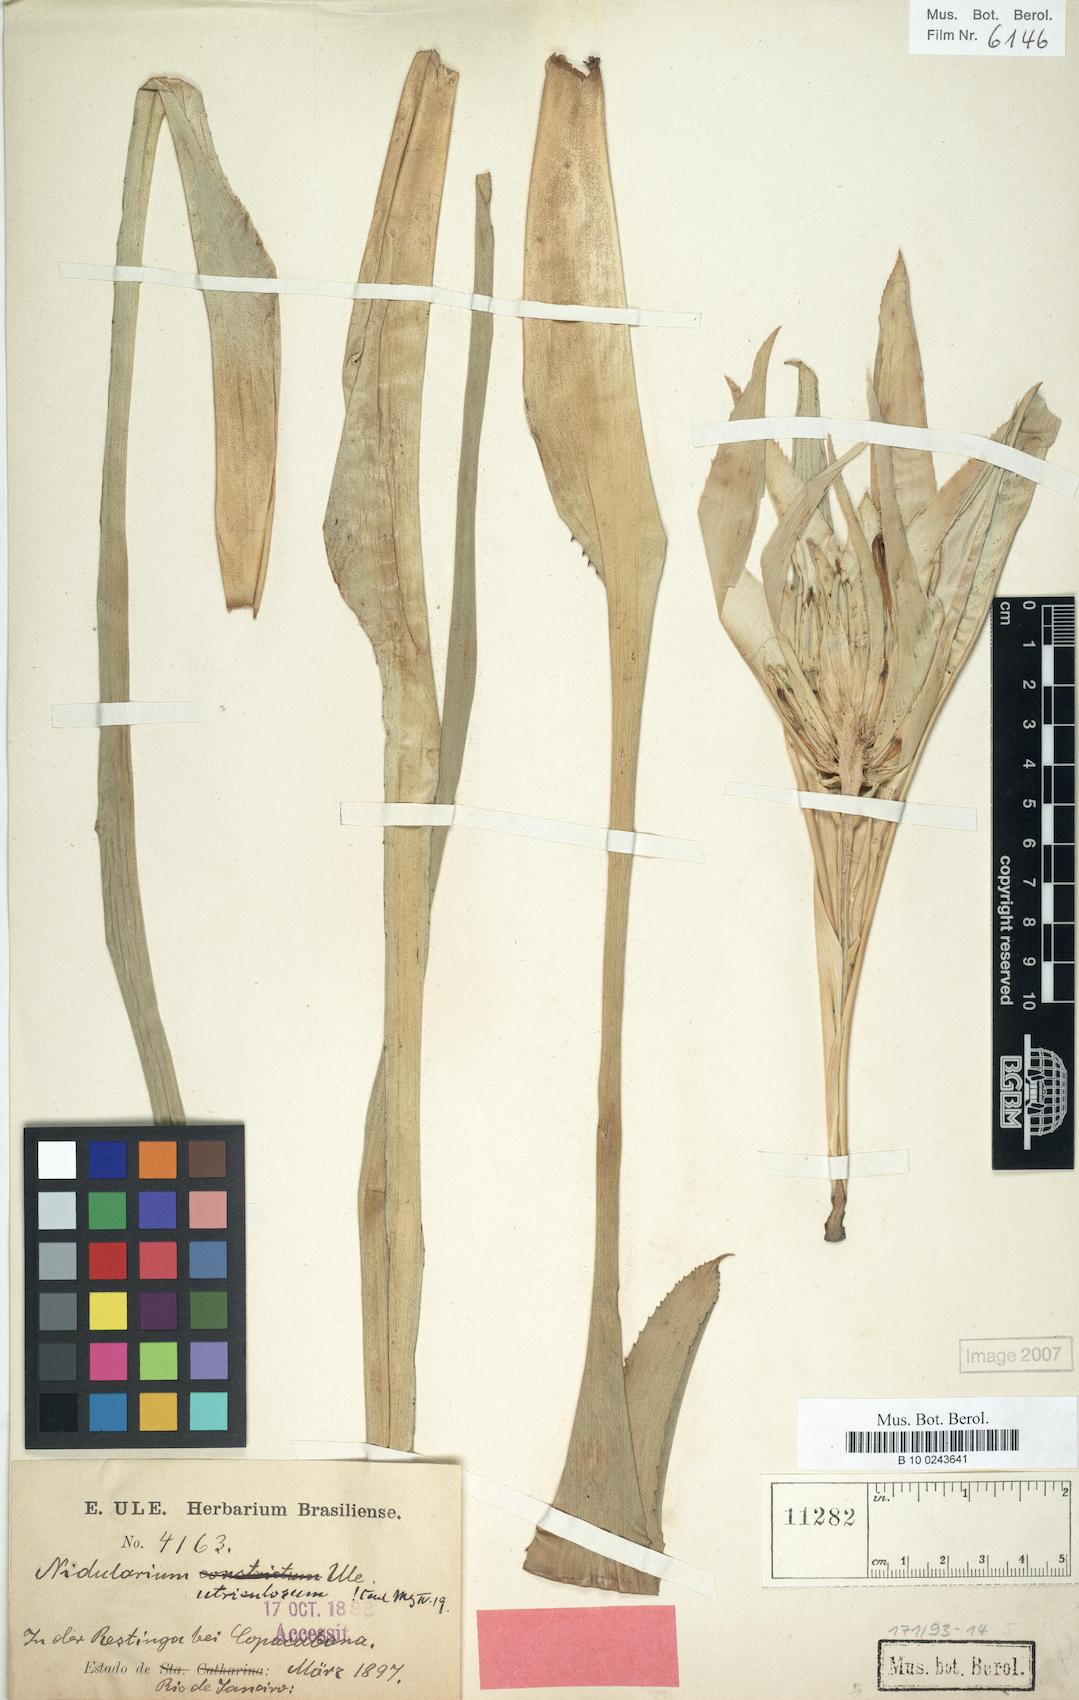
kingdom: Plantae
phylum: Tracheophyta
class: Liliopsida
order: Poales
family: Bromeliaceae
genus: Nidularium
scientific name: Nidularium utriculosum
